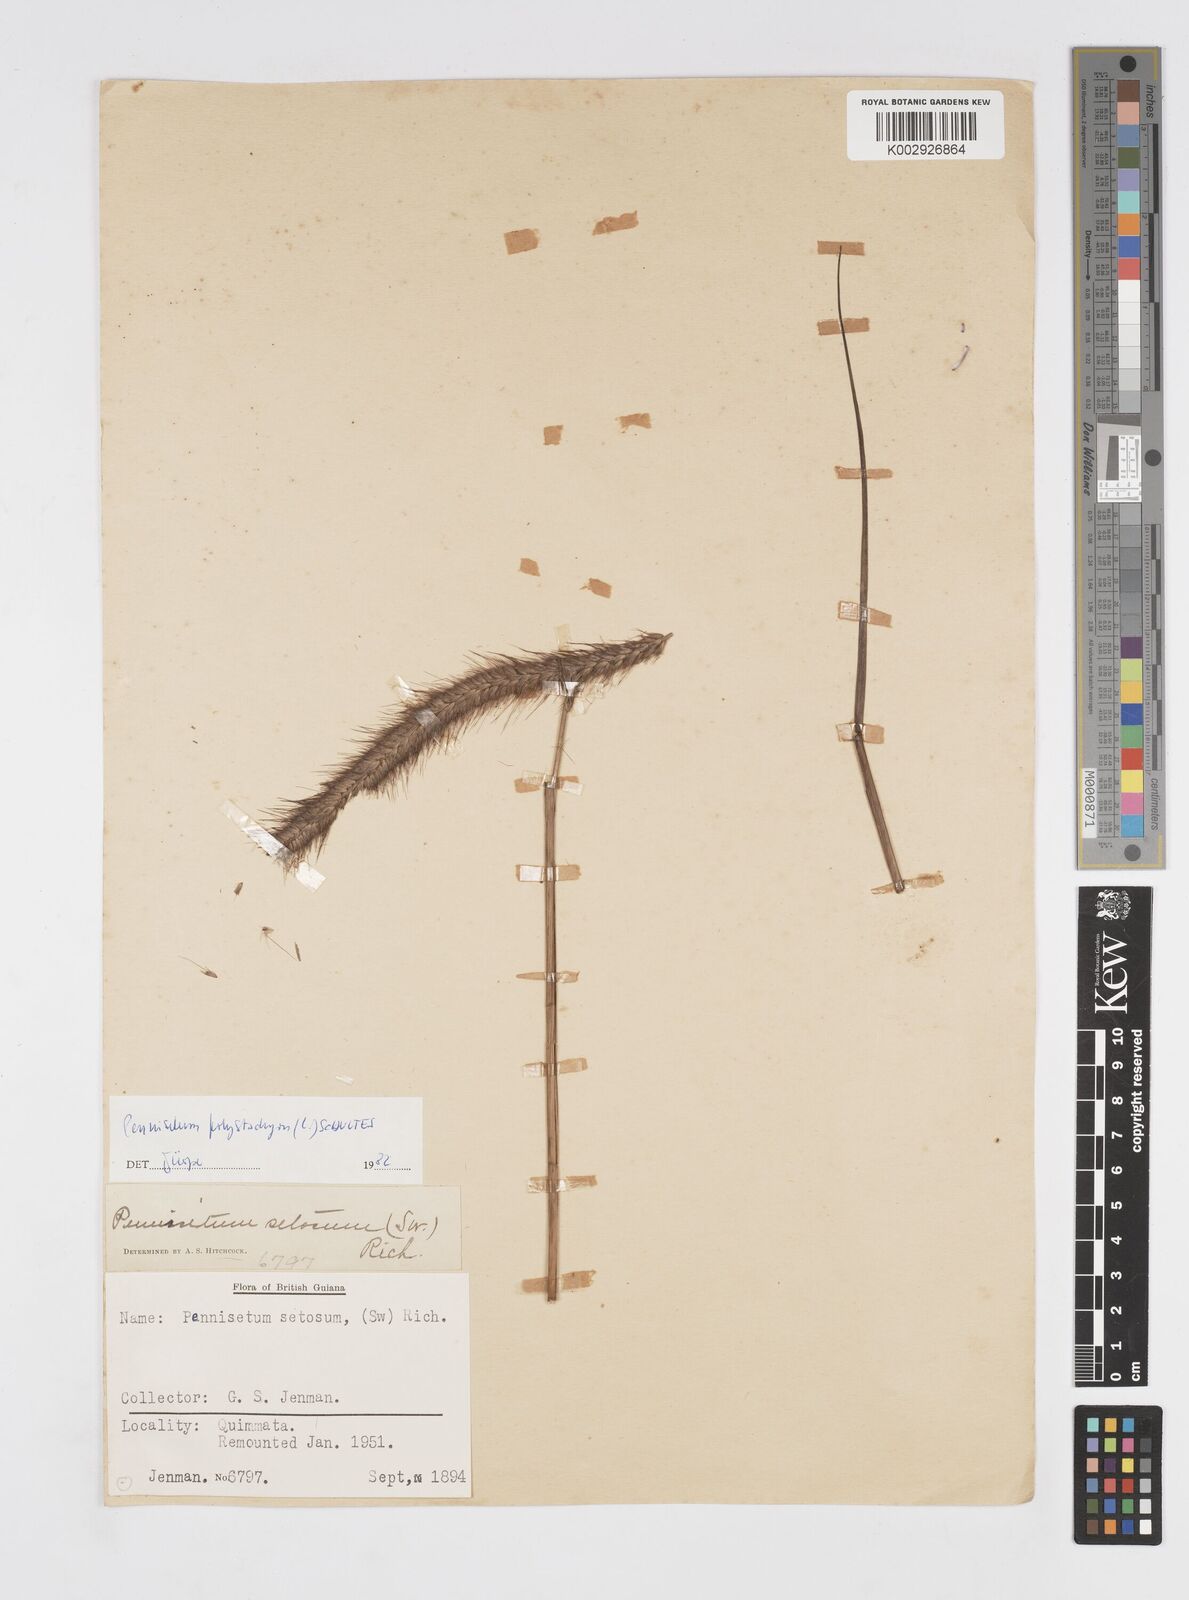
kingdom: Plantae
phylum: Tracheophyta
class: Liliopsida
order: Poales
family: Poaceae
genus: Cenchrus
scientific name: Cenchrus setosus
